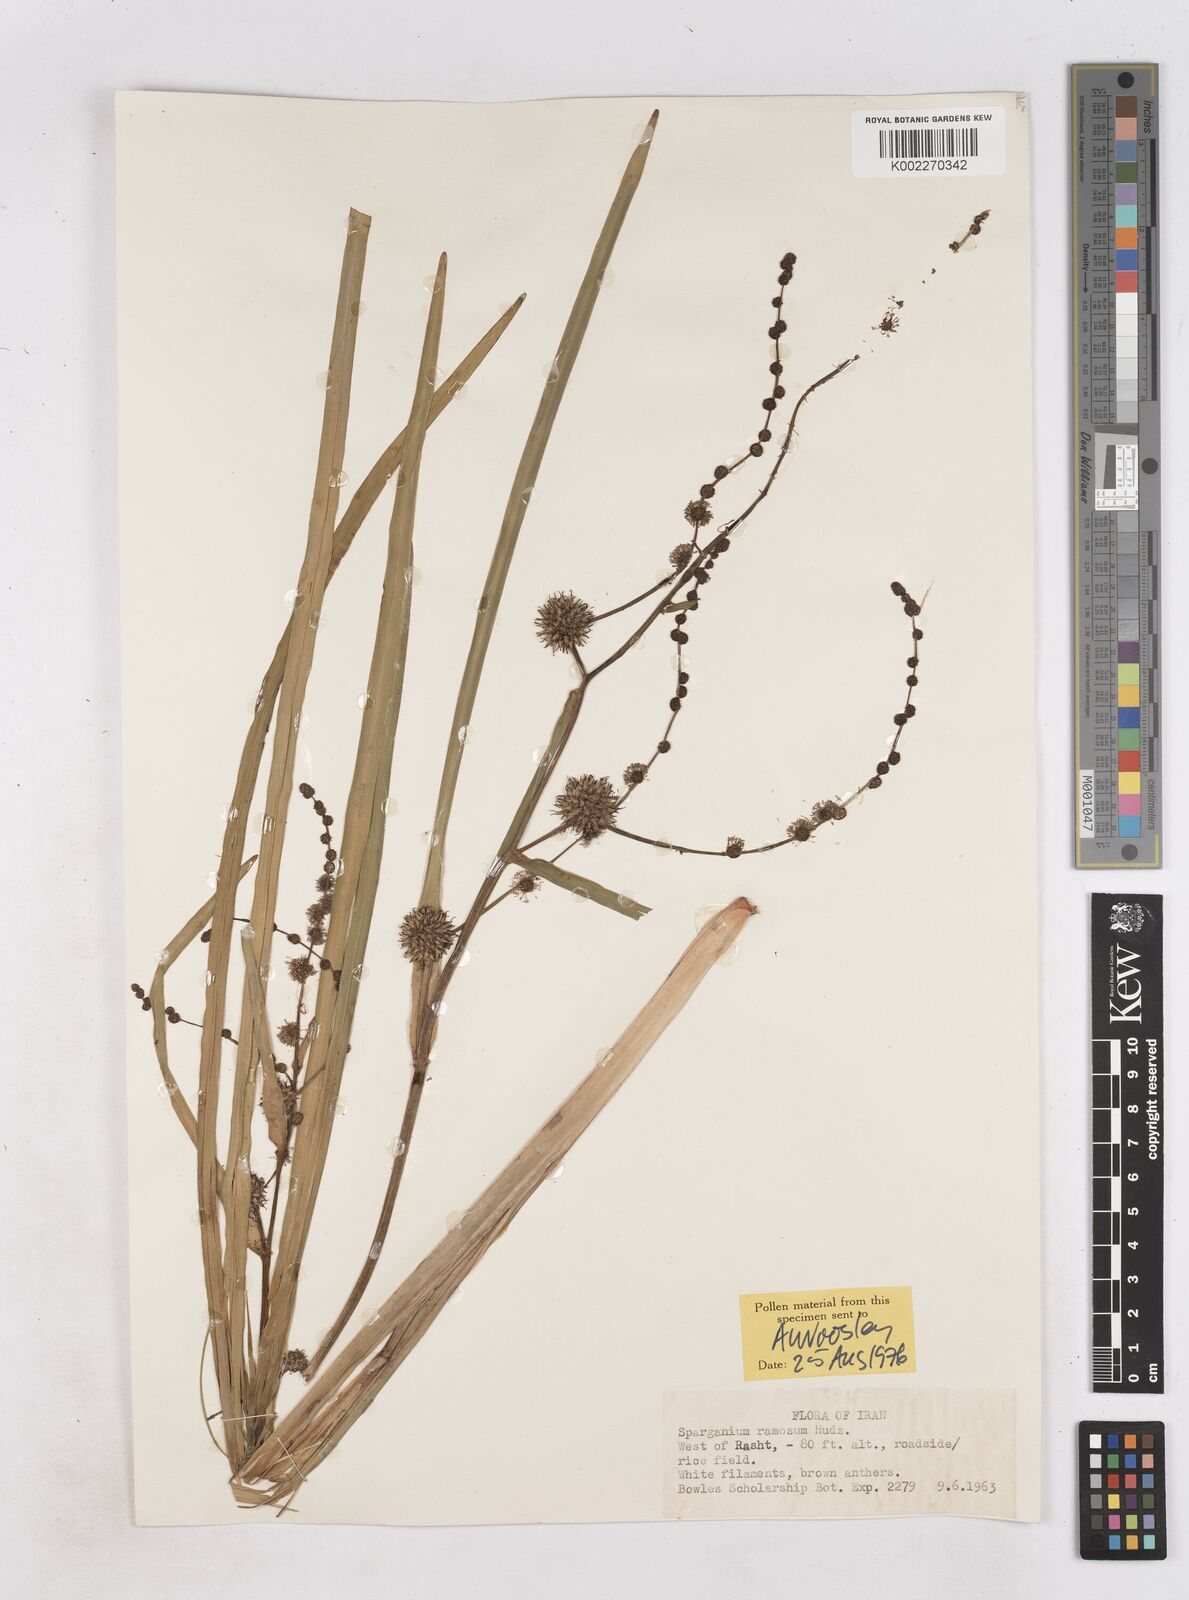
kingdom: Plantae
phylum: Tracheophyta
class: Liliopsida
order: Poales
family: Typhaceae
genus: Sparganium
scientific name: Sparganium erectum
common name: Branched bur-reed
